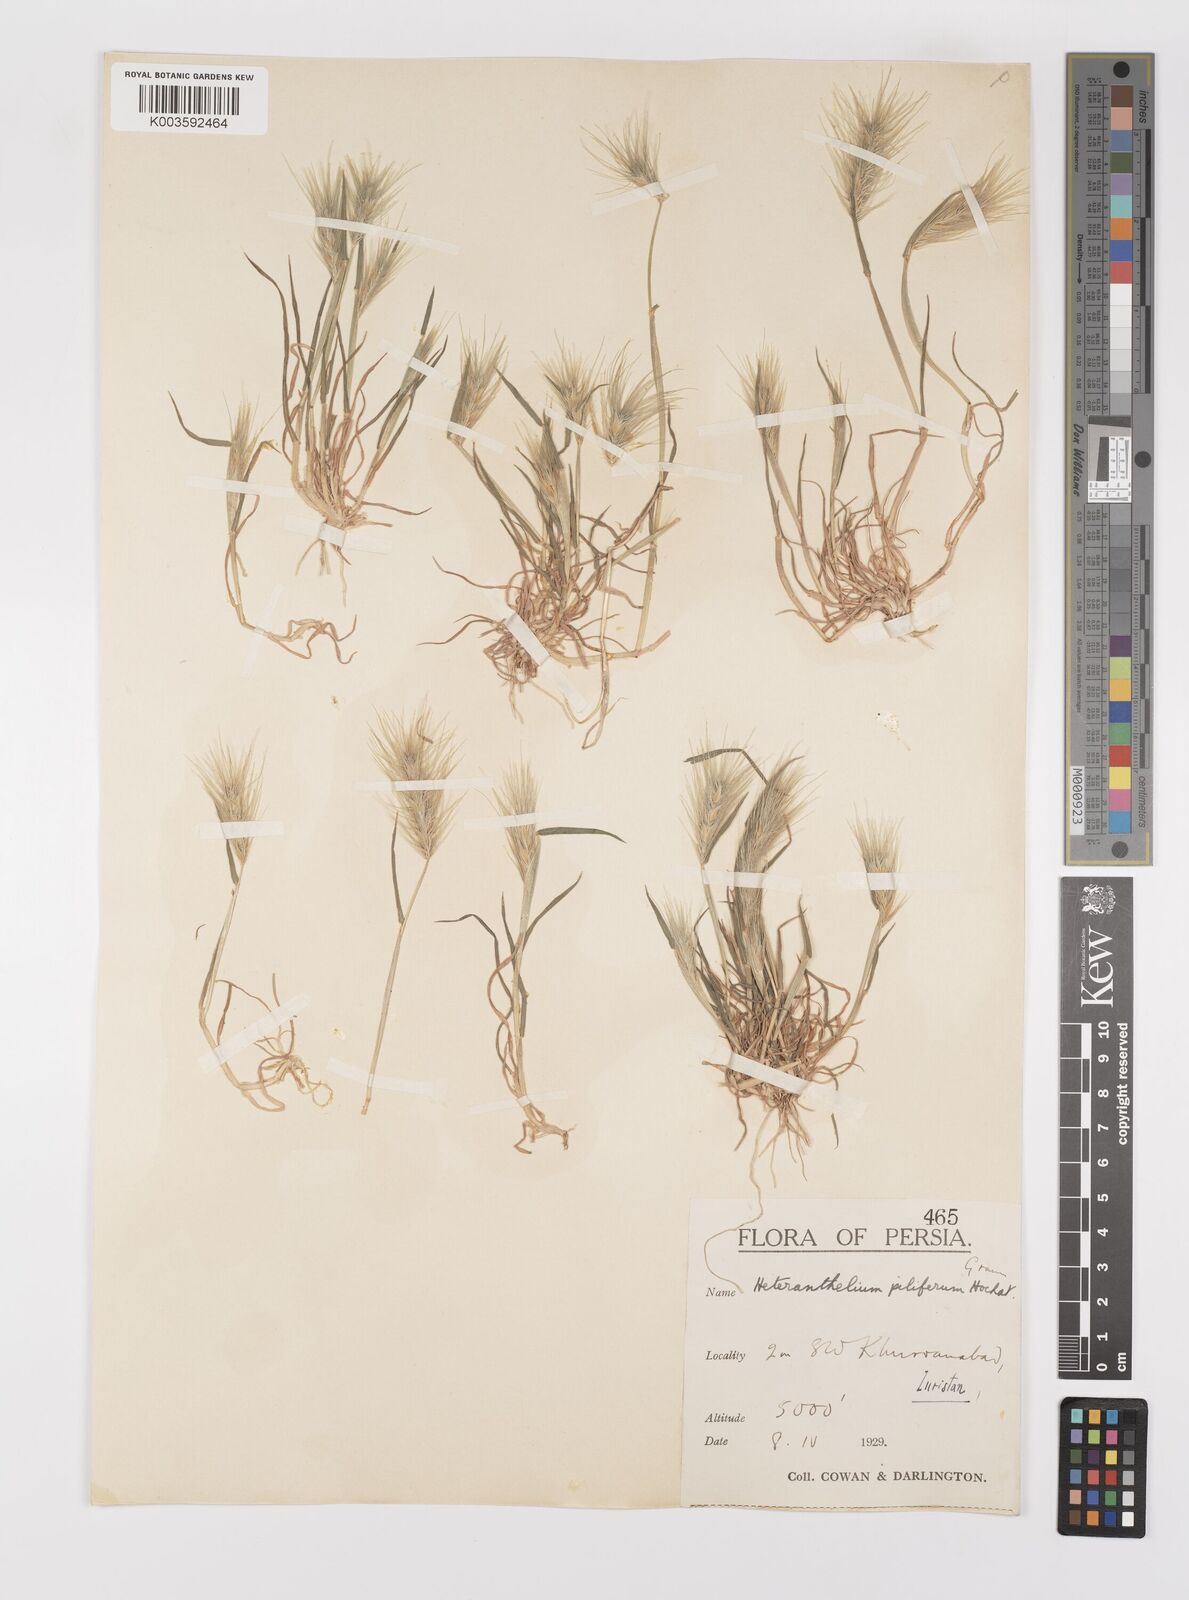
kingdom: Plantae
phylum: Tracheophyta
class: Liliopsida
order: Poales
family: Poaceae
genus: Heteranthelium
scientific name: Heteranthelium piliferum
